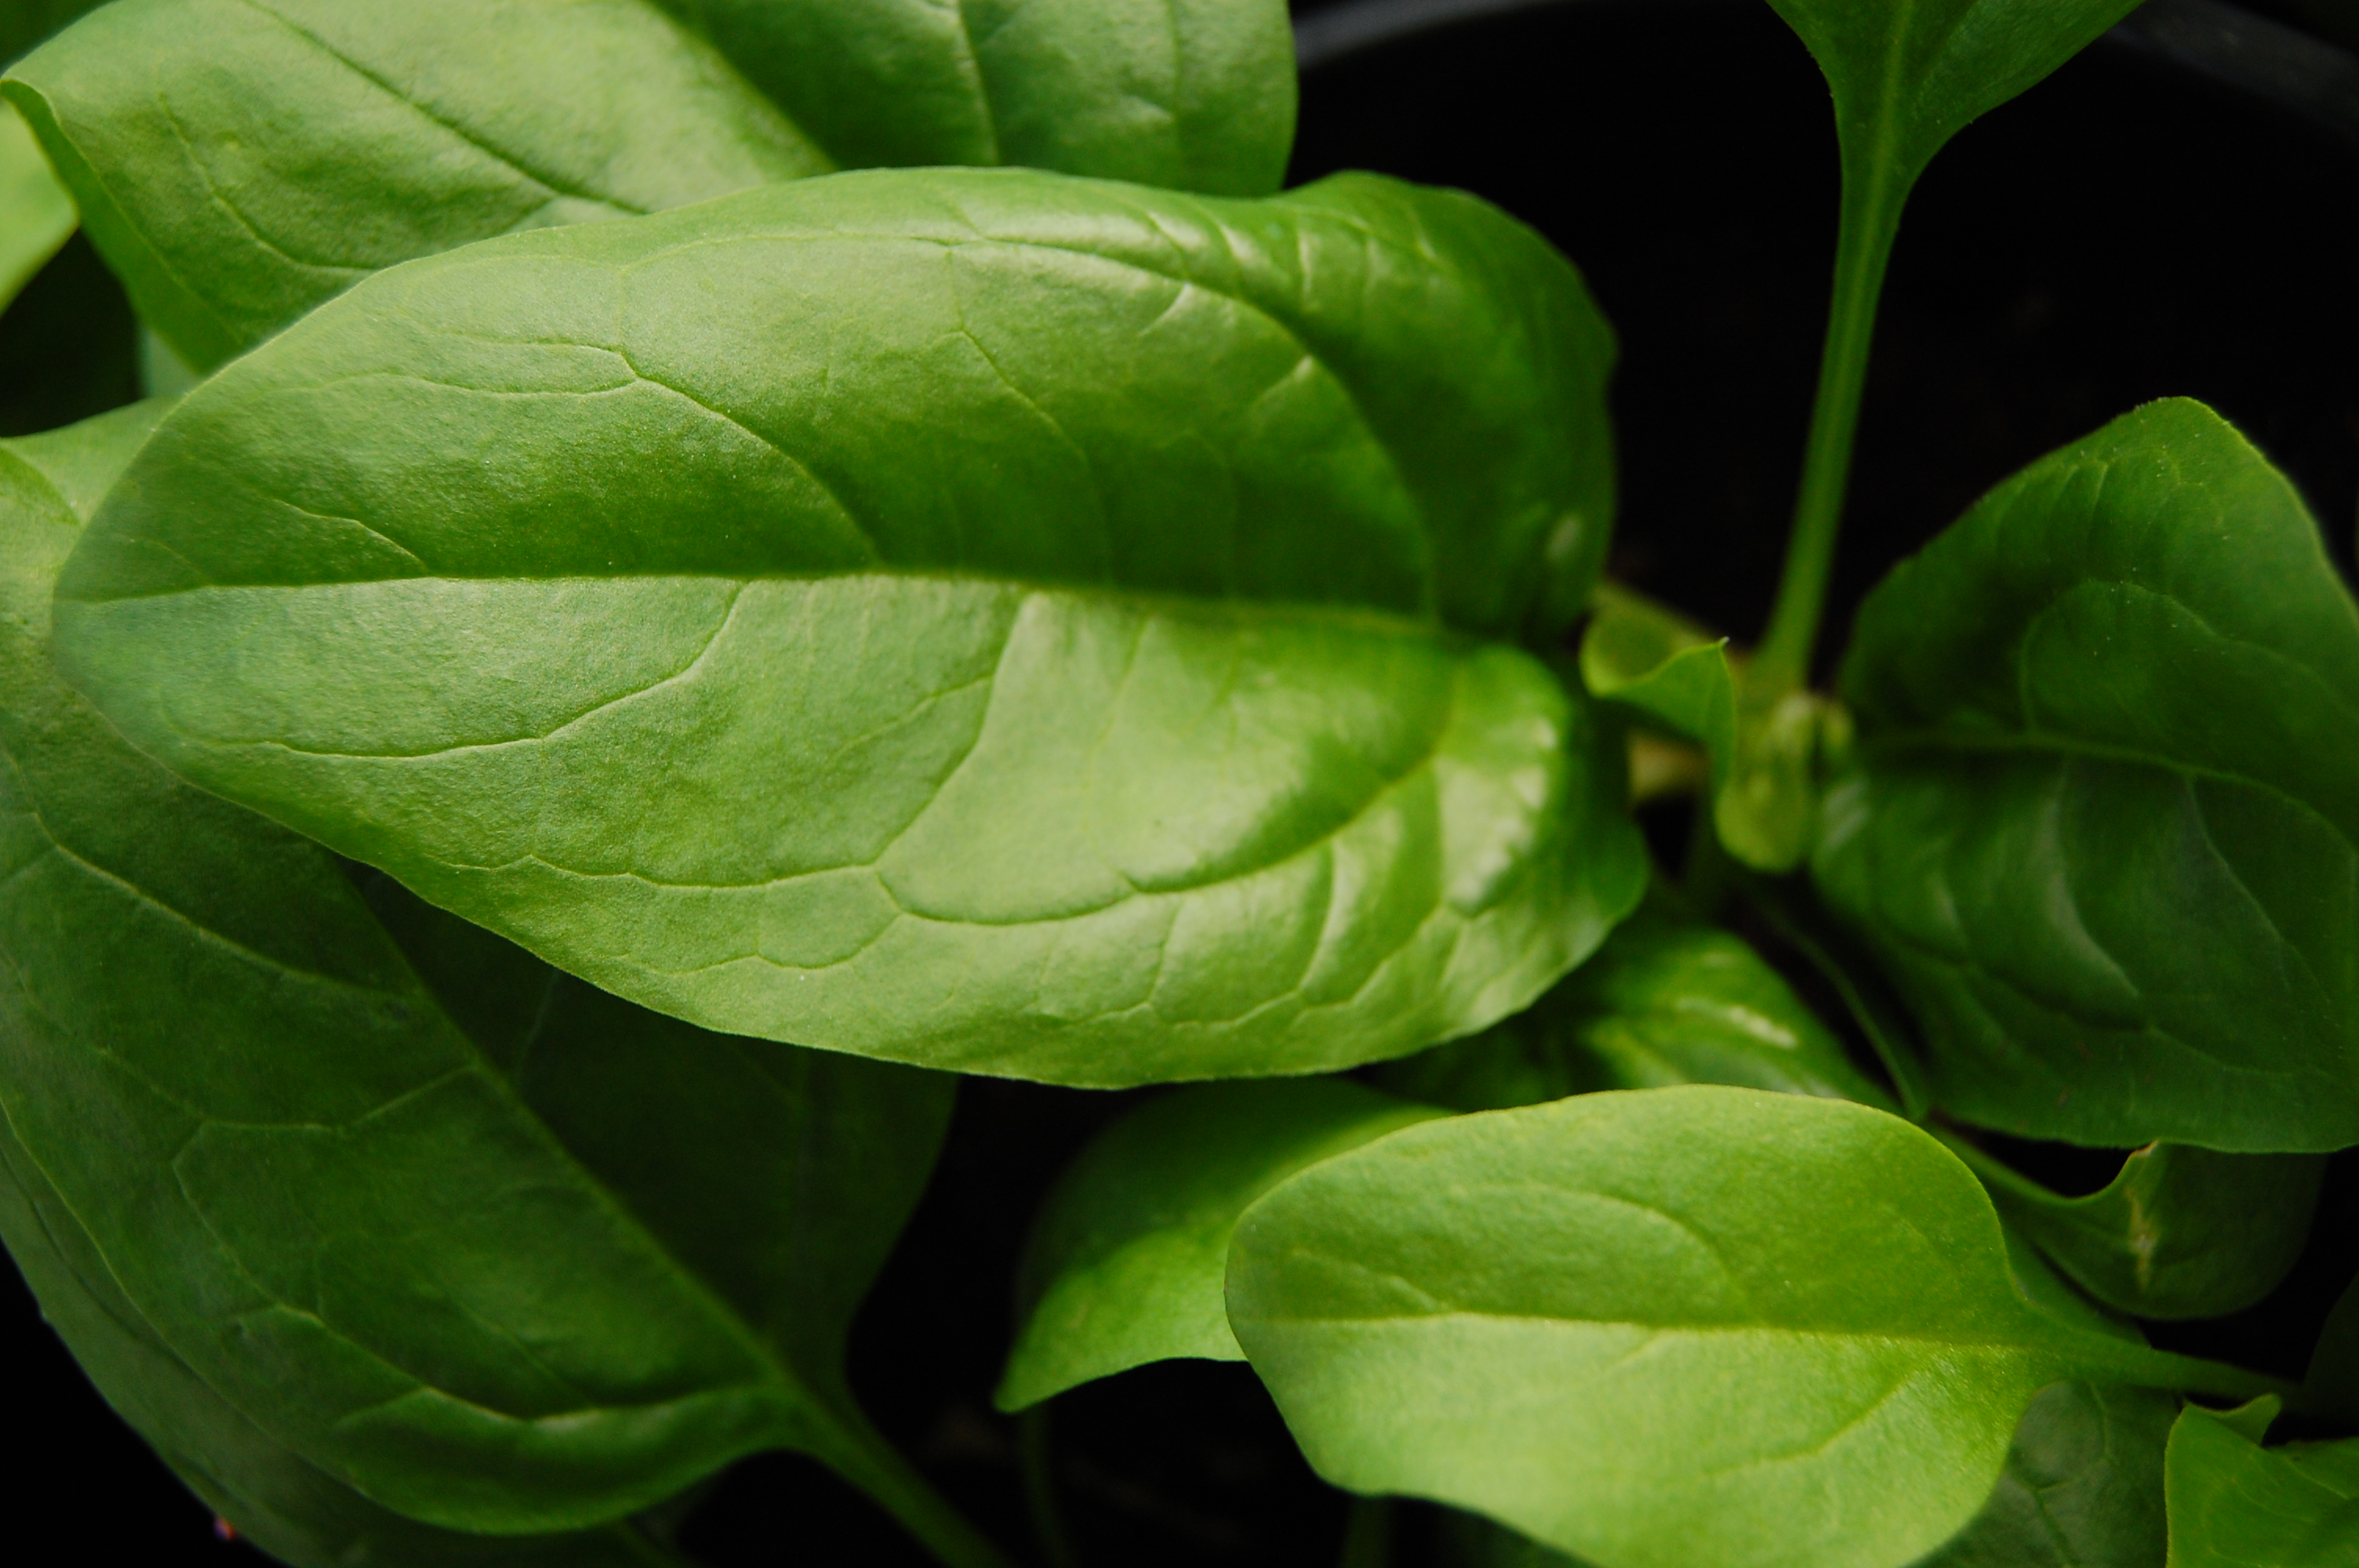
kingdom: Plantae
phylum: Tracheophyta
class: Magnoliopsida
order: Caryophyllales
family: Amaranthaceae
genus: Spinacia
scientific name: Spinacia oleracea
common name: Spinach
